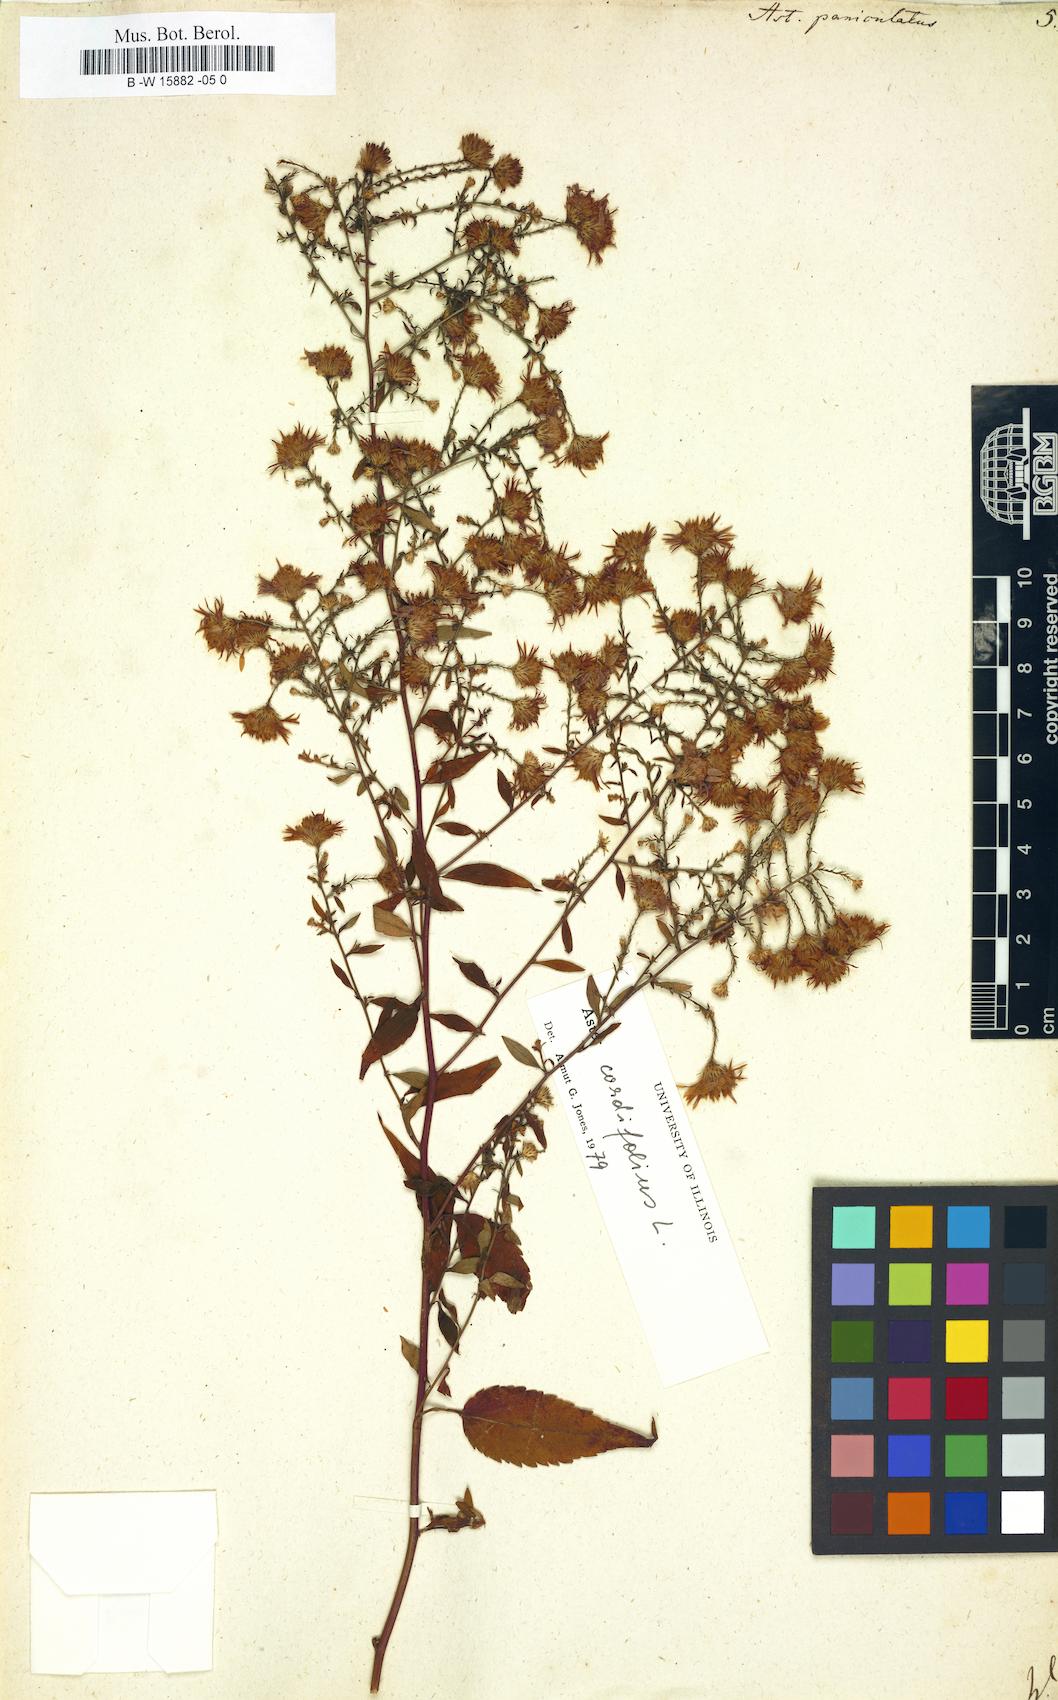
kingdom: Plantae
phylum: Tracheophyta
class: Magnoliopsida
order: Asterales
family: Asteraceae
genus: Symphyotrichum
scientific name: Symphyotrichum lanceolatum
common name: Panicled aster
